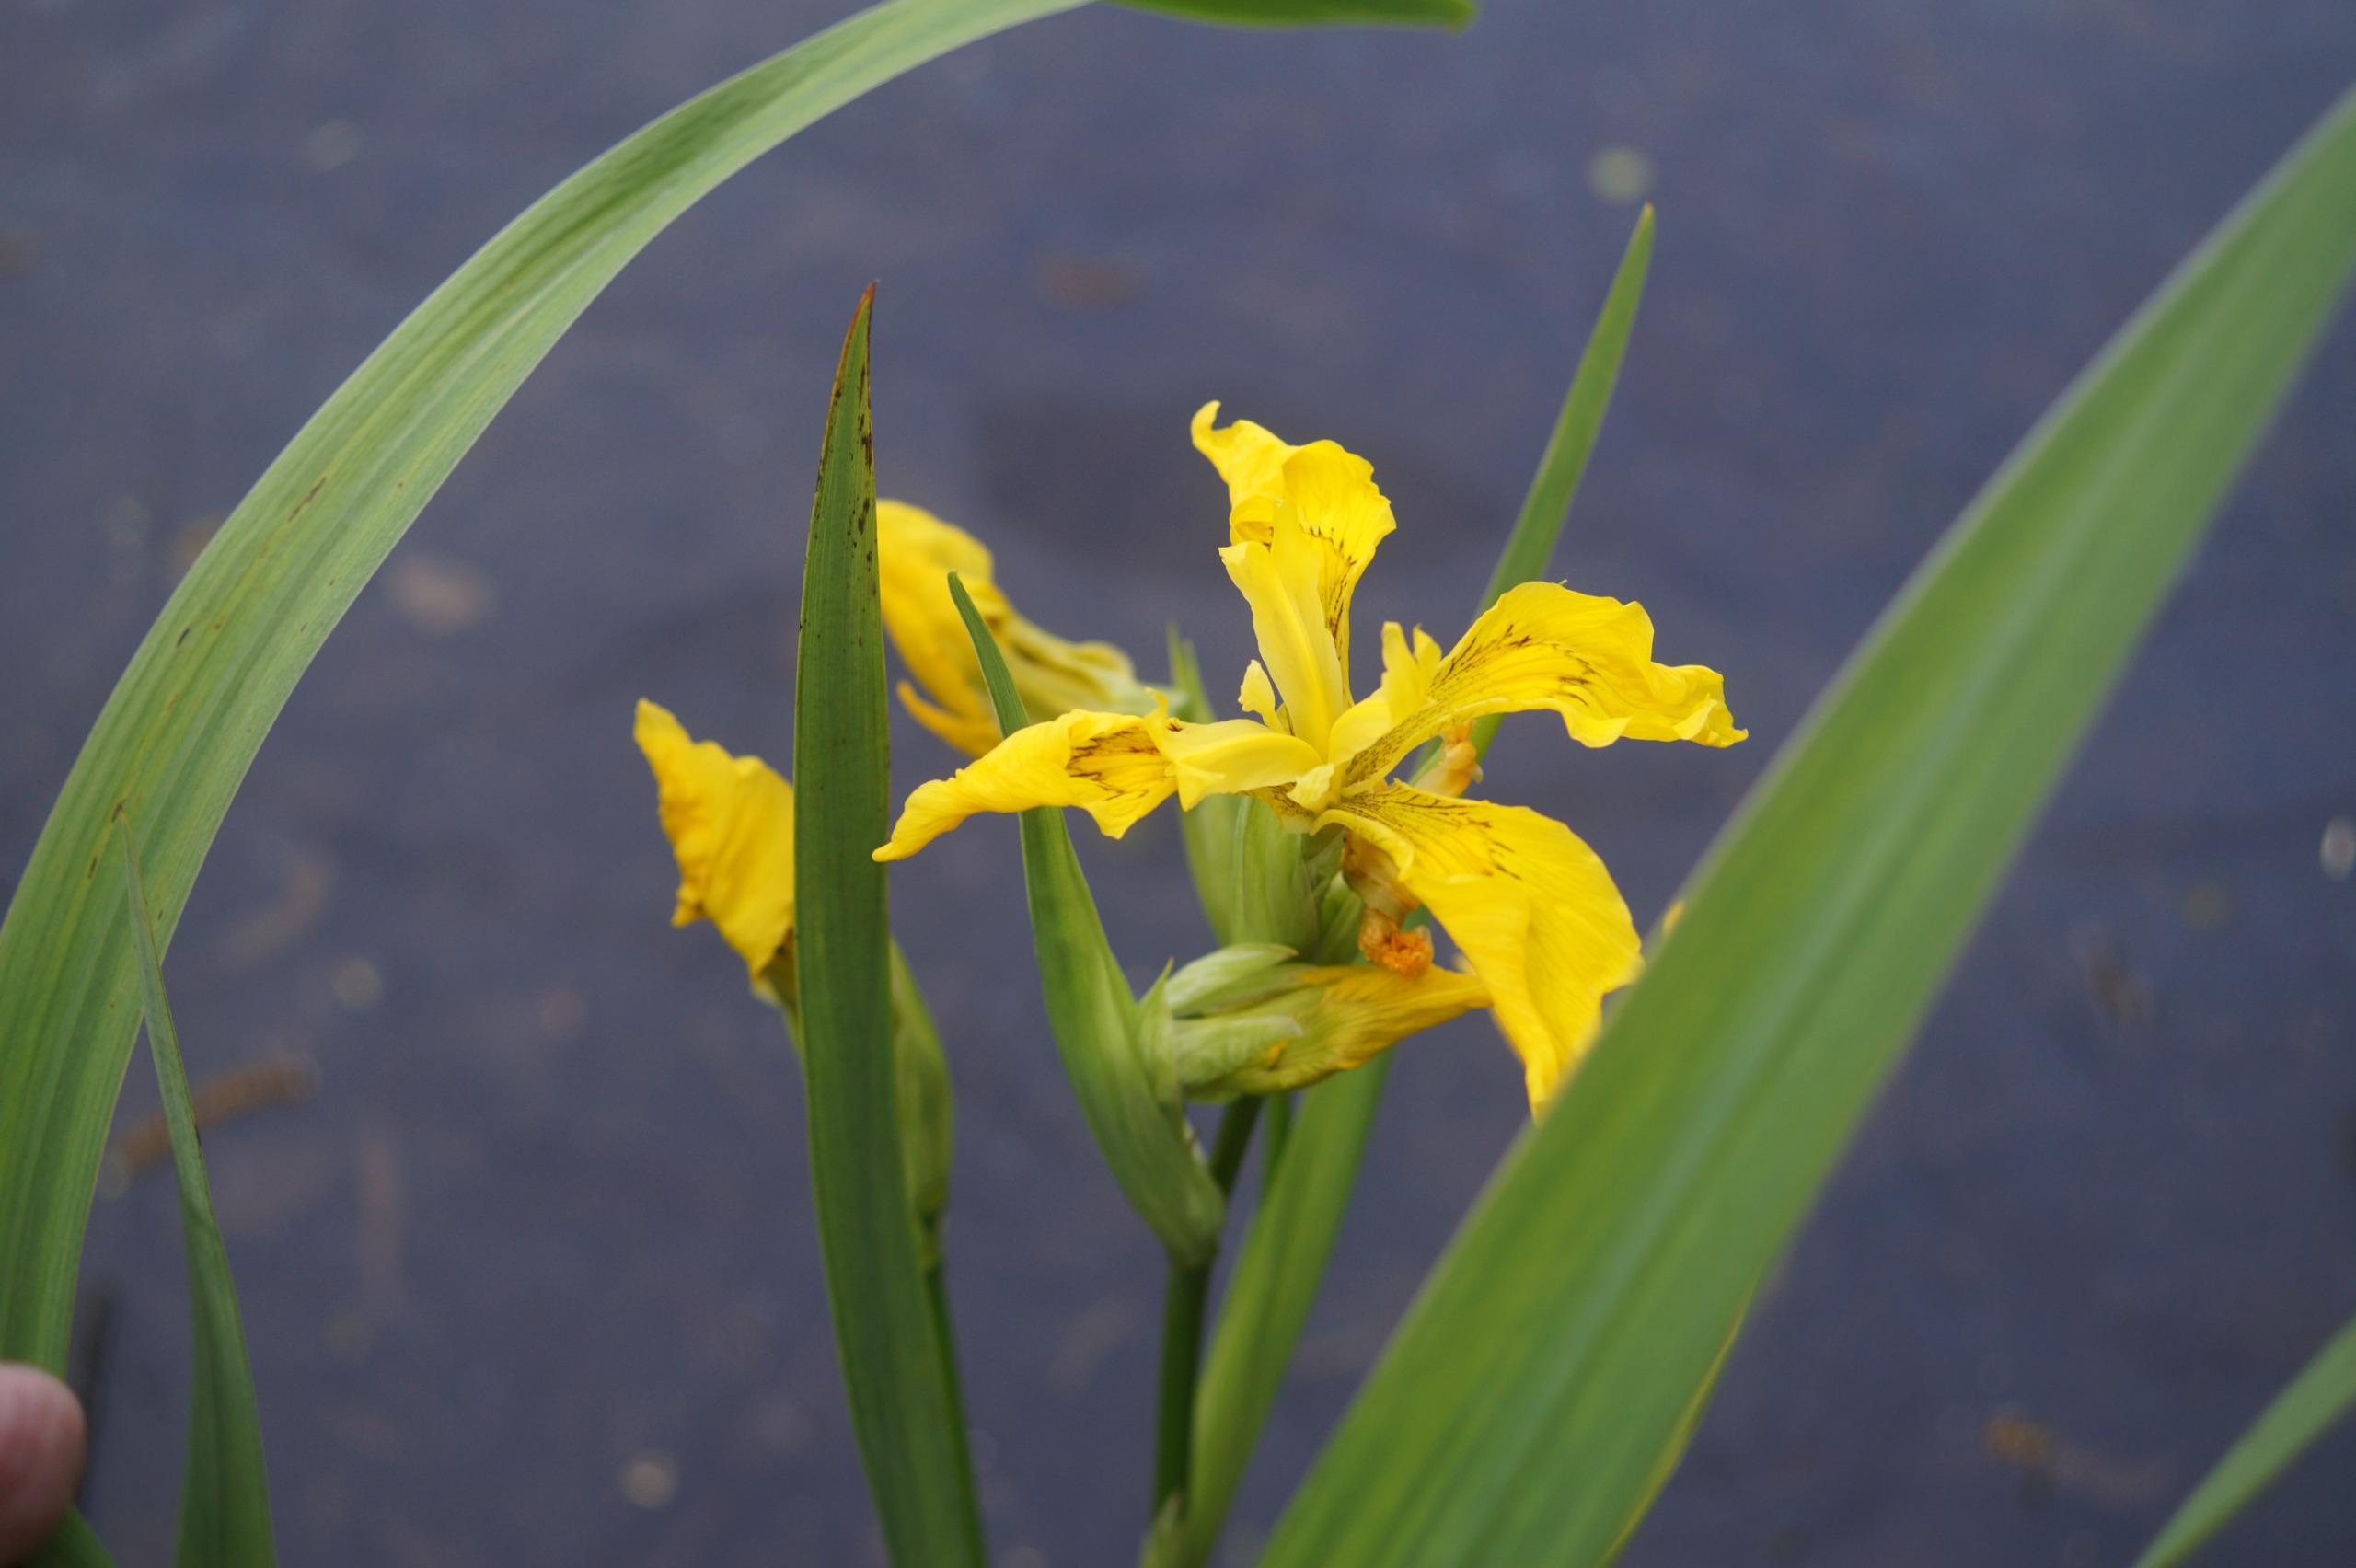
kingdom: Plantae
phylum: Tracheophyta
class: Liliopsida
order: Asparagales
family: Iridaceae
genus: Iris
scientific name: Iris pseudacorus
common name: Gul iris
